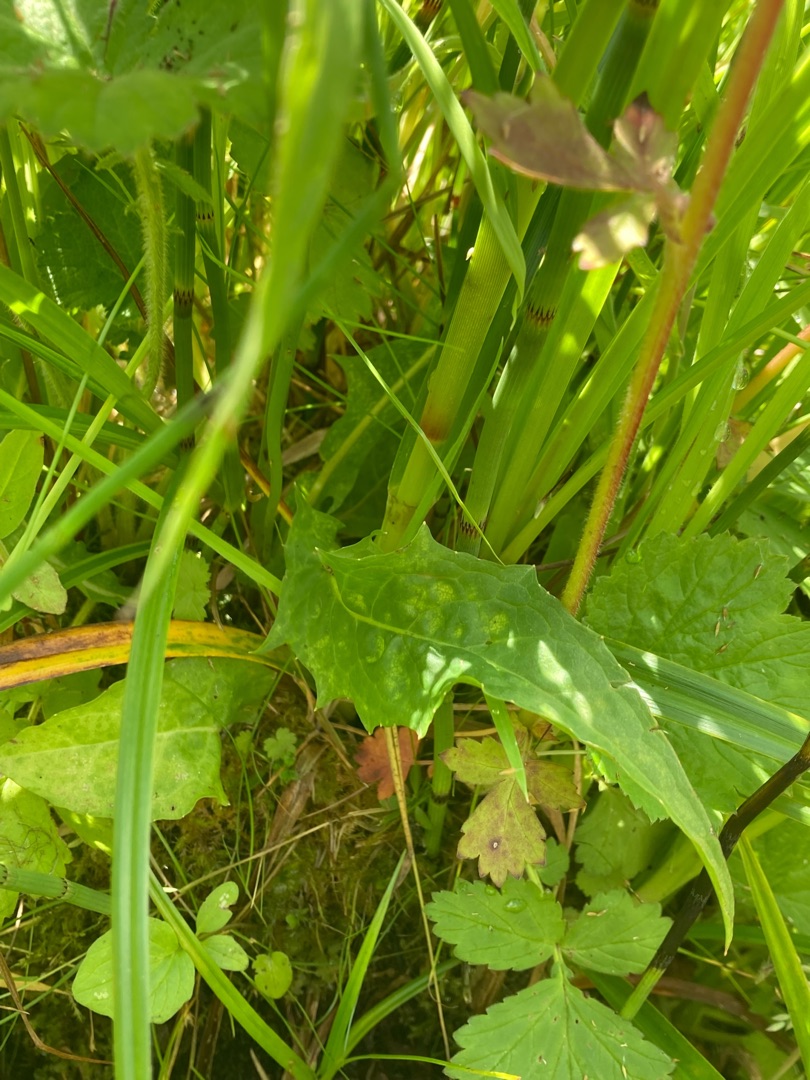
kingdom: Plantae
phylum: Tracheophyta
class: Magnoliopsida
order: Asterales
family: Asteraceae
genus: Crepis
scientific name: Crepis paludosa
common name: Kær-høgeskæg
